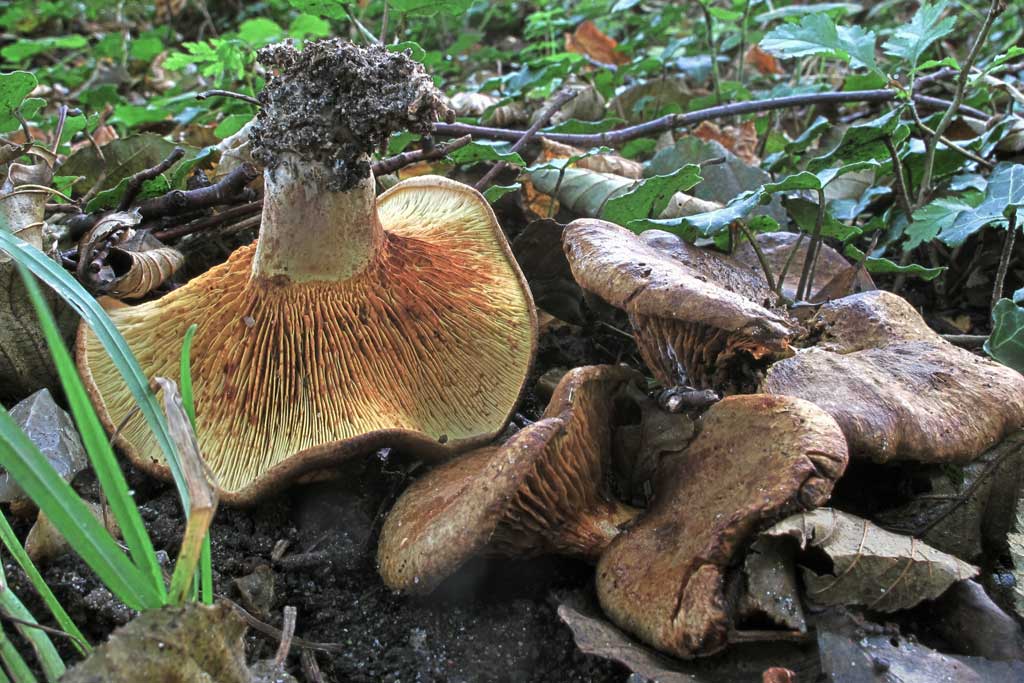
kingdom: Fungi
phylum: Basidiomycota
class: Agaricomycetes
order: Boletales
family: Paxillaceae
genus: Paxillus
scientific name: Paxillus obscurisporus
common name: mahognisporet netbladhat
